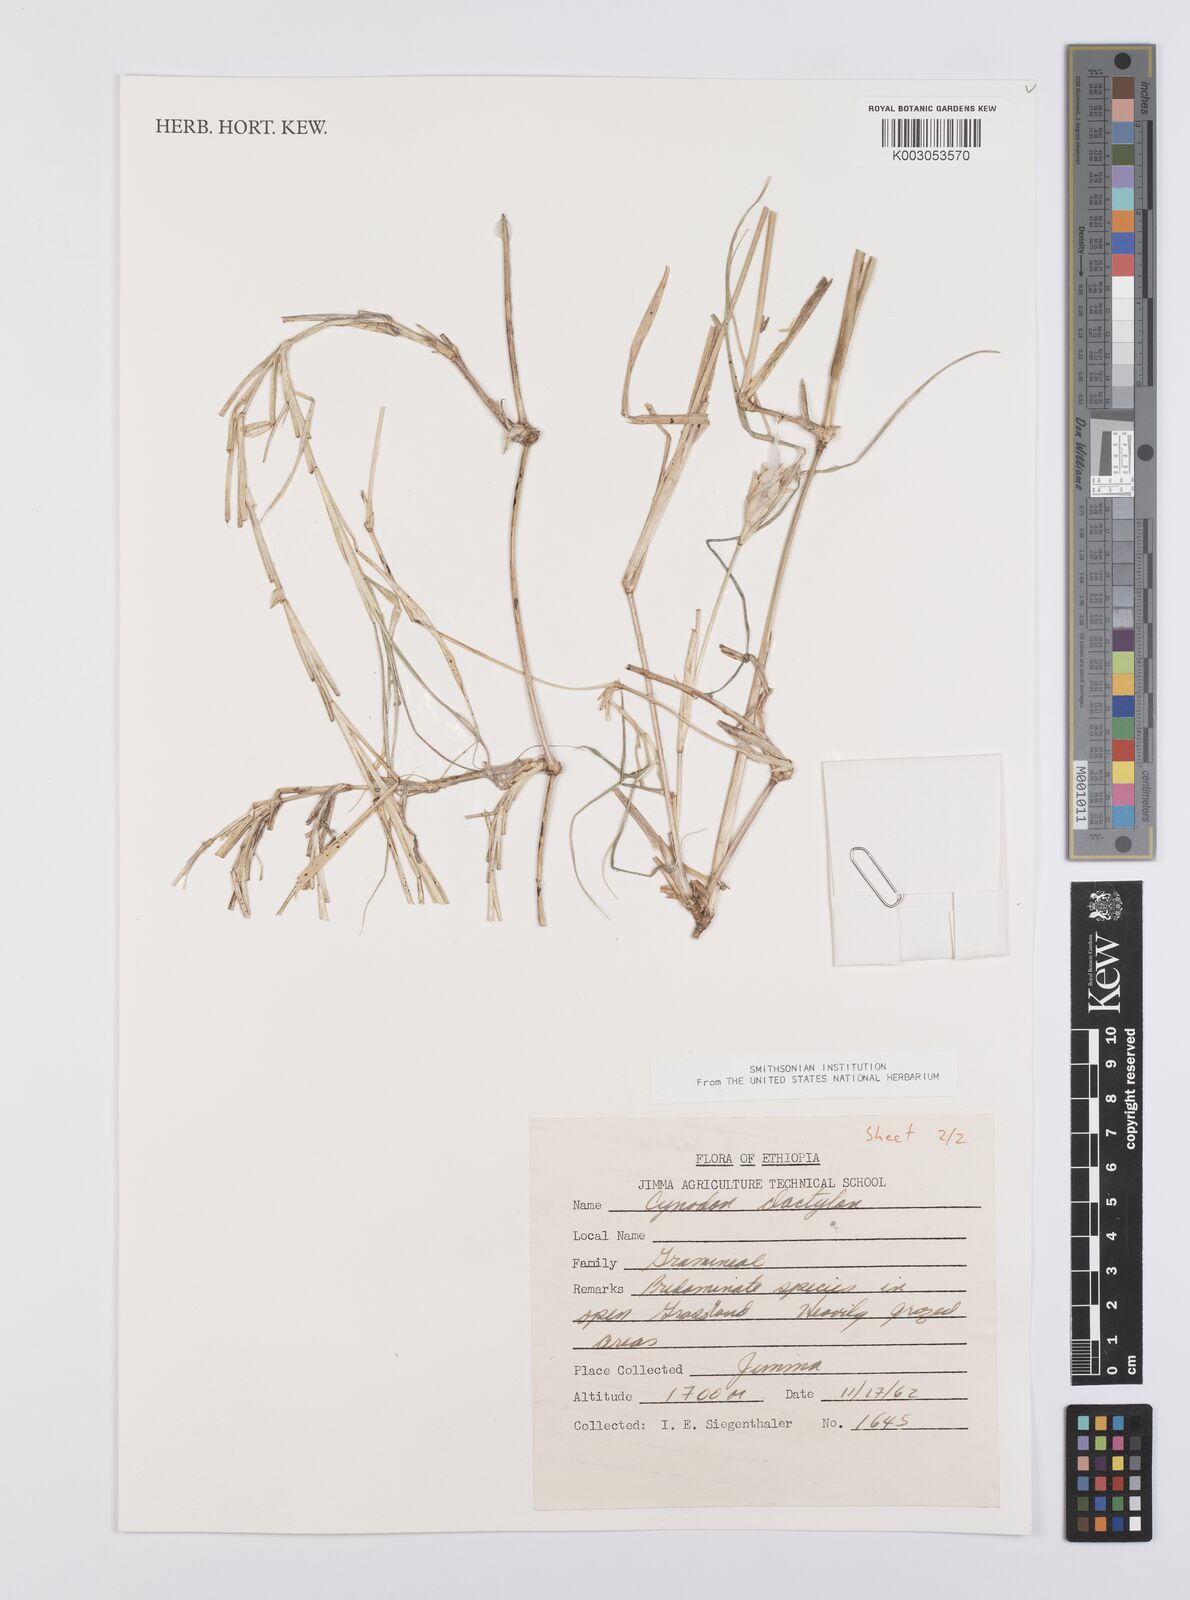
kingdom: Plantae
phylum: Tracheophyta
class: Liliopsida
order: Poales
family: Poaceae
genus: Cynodon
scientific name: Cynodon dactylon
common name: Bermuda grass
